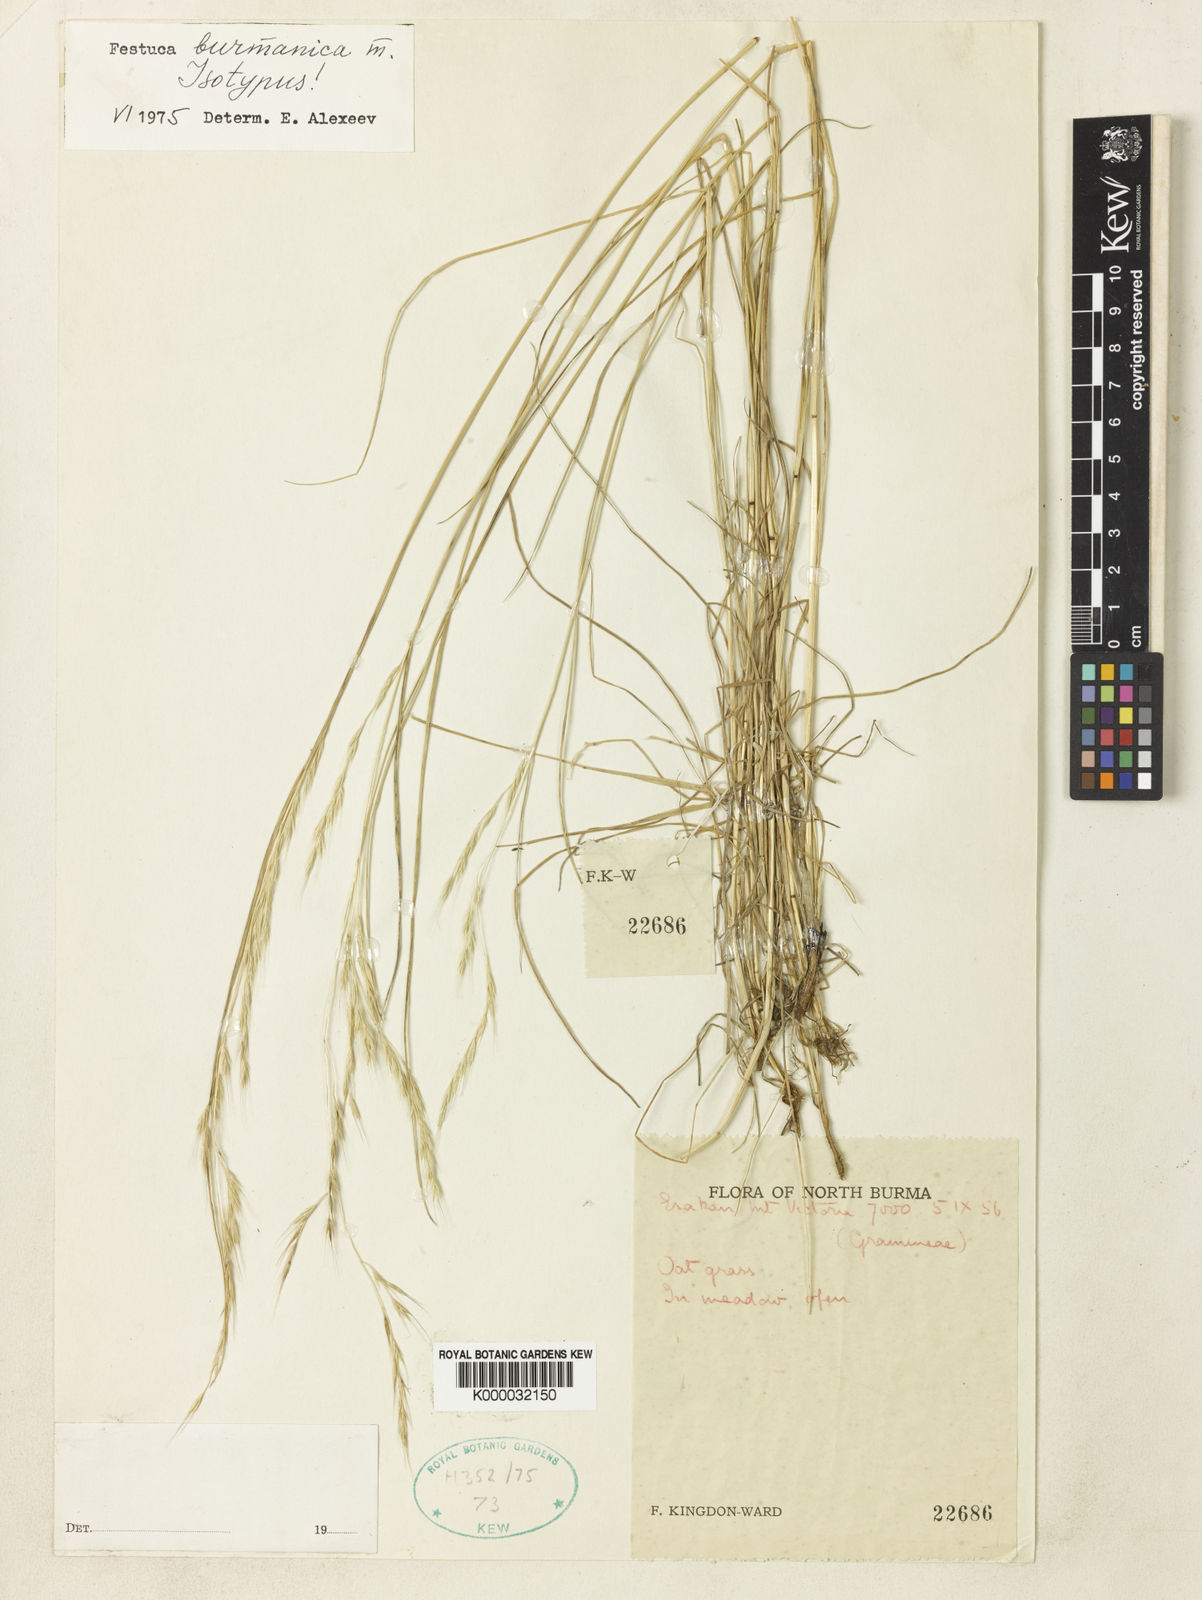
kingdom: Plantae
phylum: Tracheophyta
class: Liliopsida
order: Poales
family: Poaceae
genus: Festuca
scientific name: Festuca burmanica
